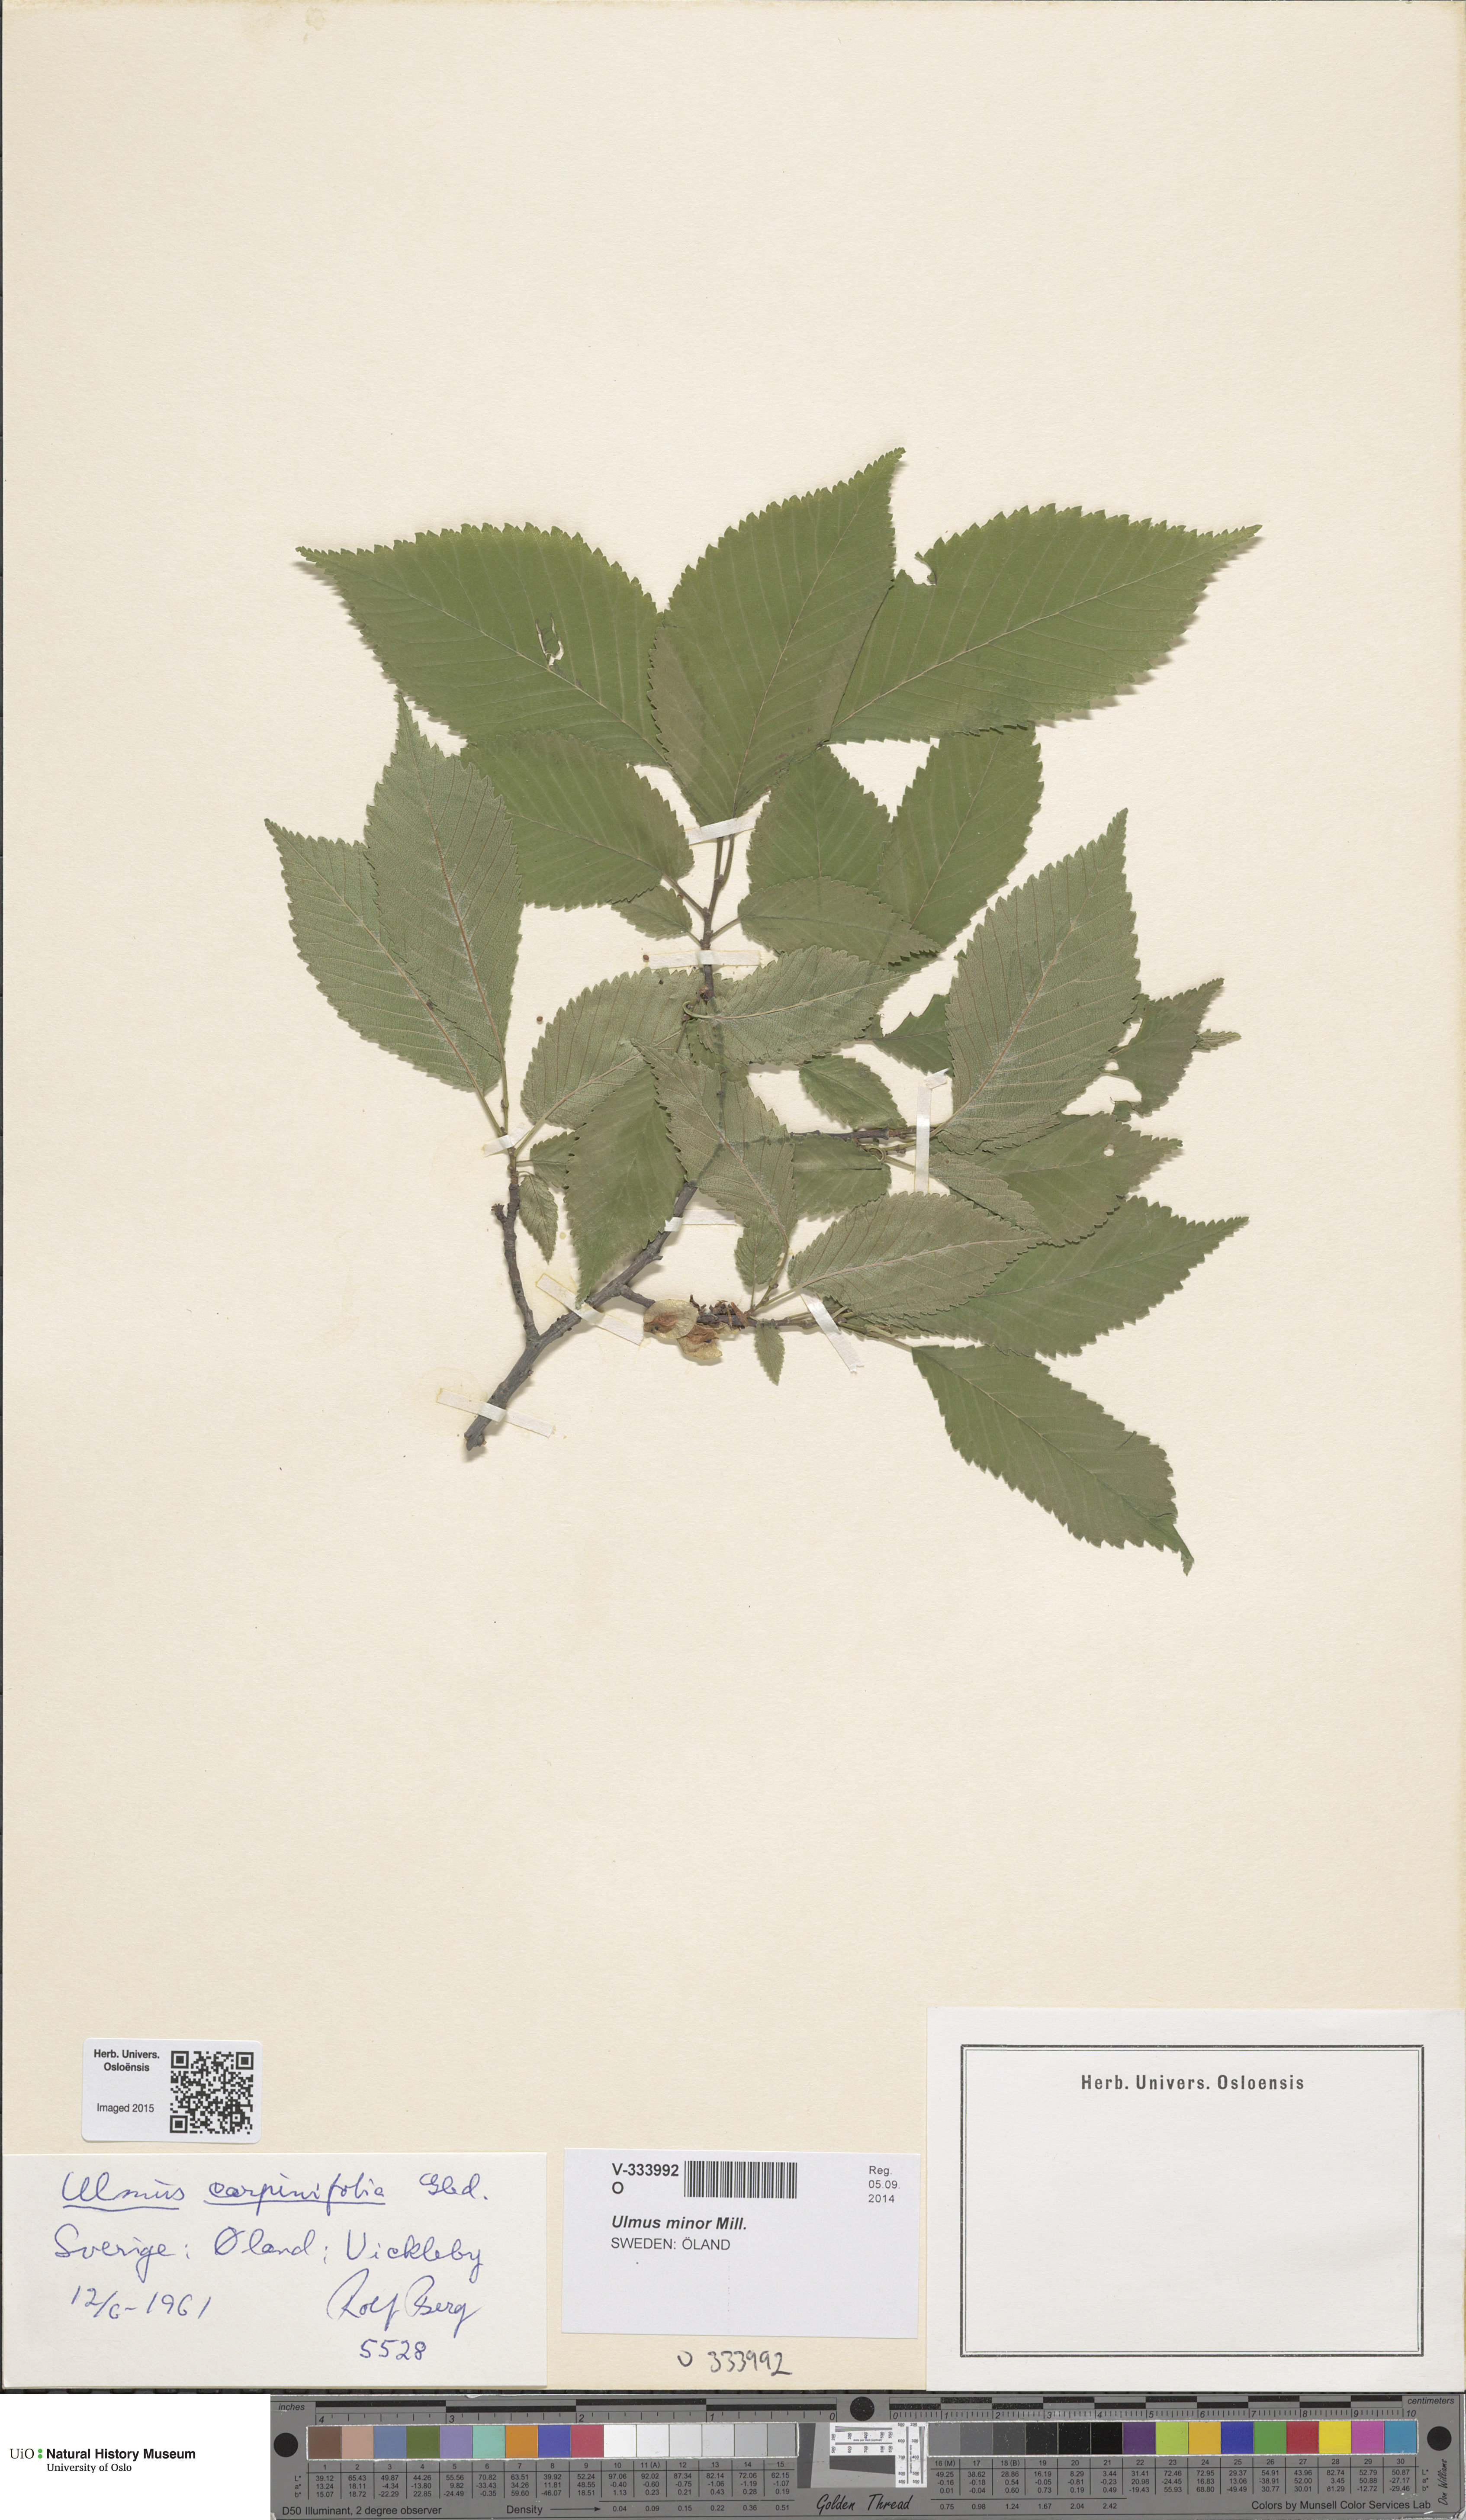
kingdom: Plantae
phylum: Tracheophyta
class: Magnoliopsida
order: Rosales
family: Ulmaceae
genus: Ulmus
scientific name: Ulmus minor
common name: Small-leaved elm
